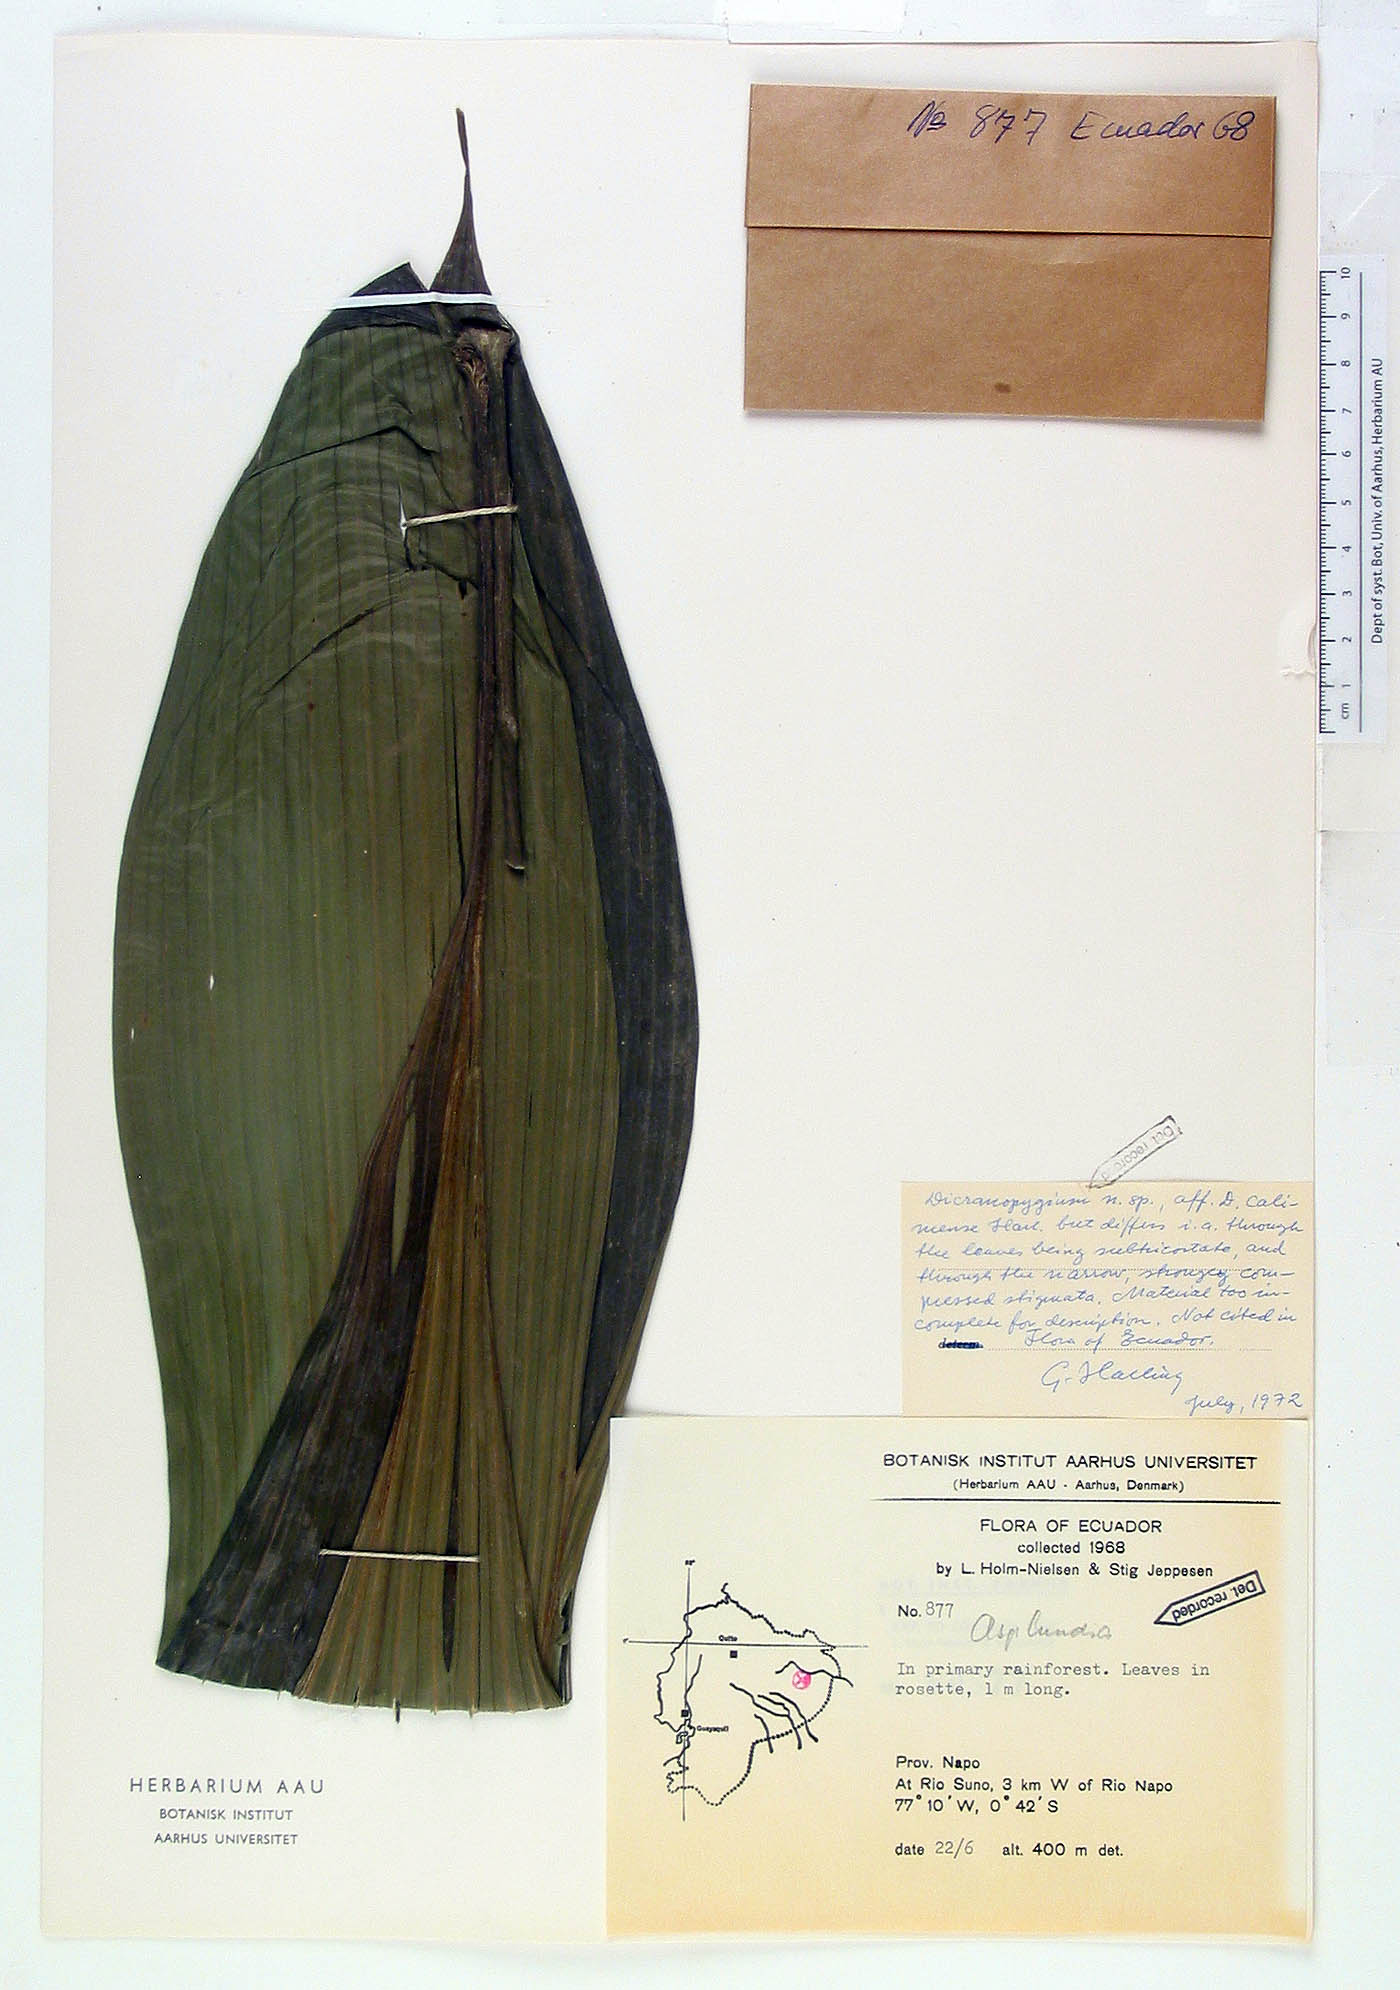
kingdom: Plantae
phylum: Tracheophyta
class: Liliopsida
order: Pandanales
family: Cyclanthaceae
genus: Dicranopygium
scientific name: Dicranopygium
